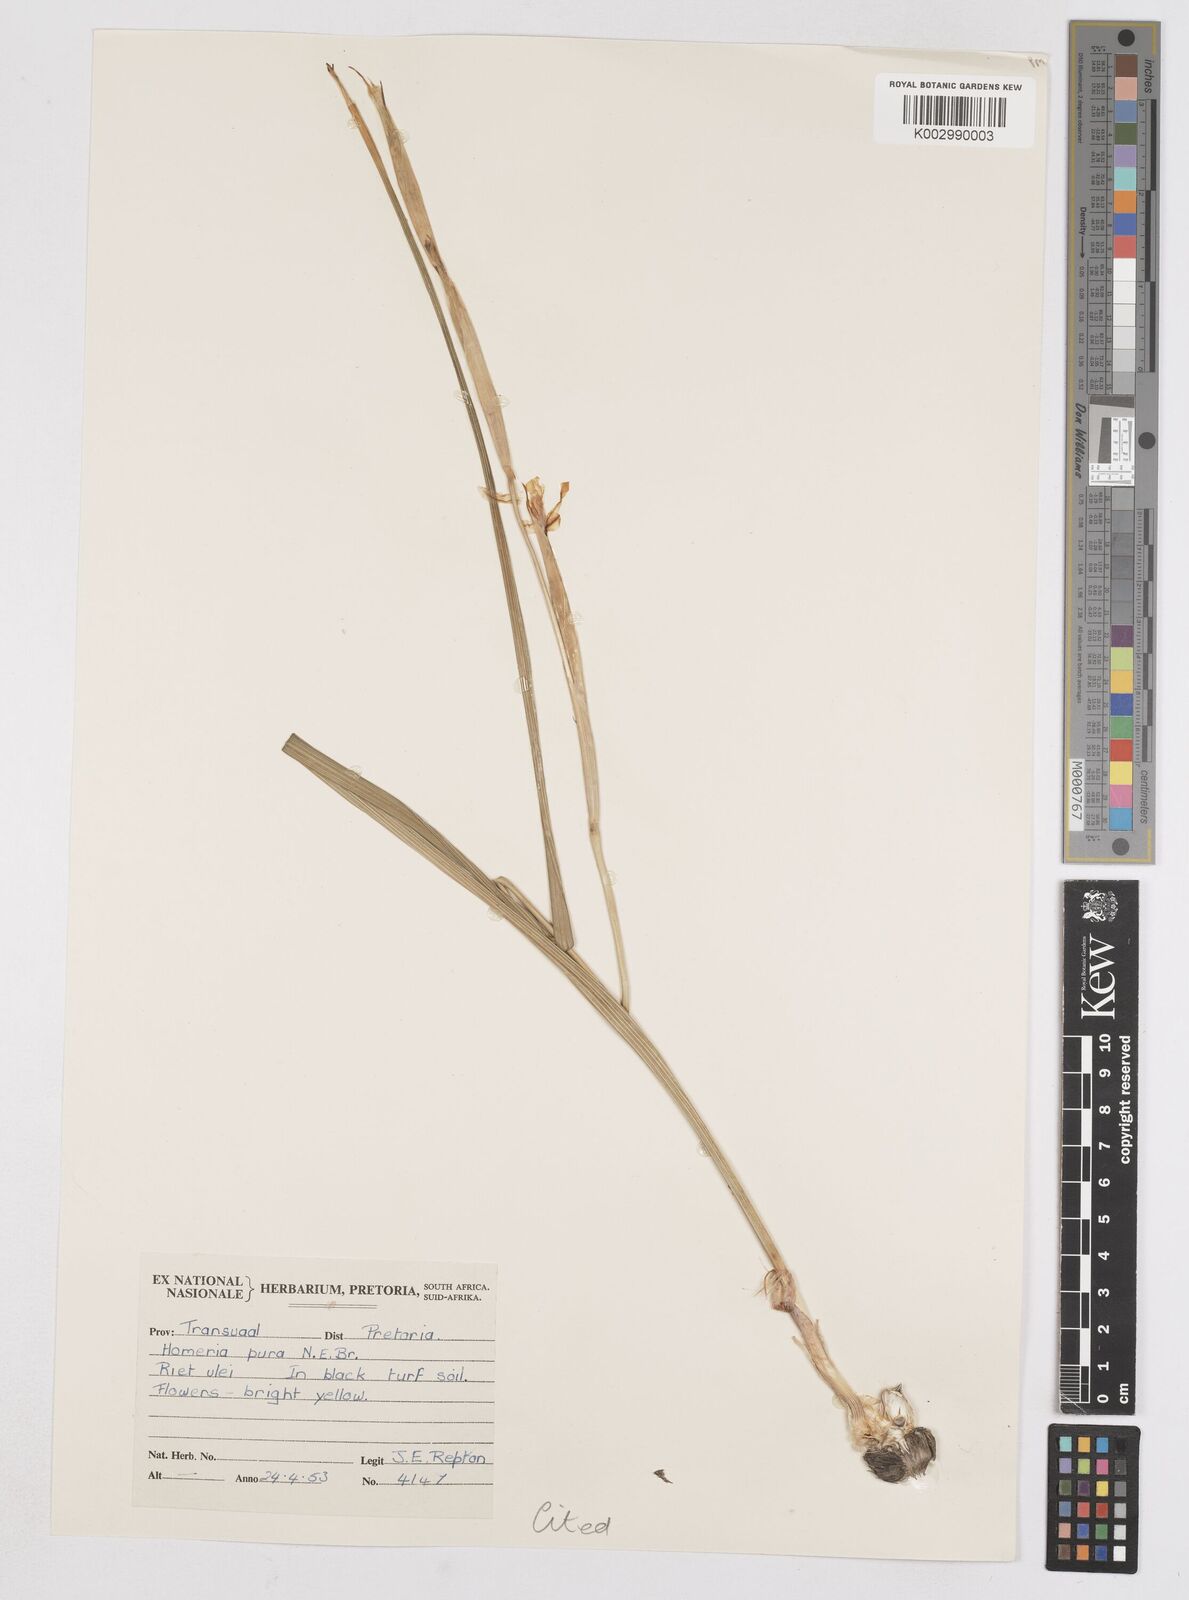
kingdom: Plantae
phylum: Tracheophyta
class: Liliopsida
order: Asparagales
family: Iridaceae
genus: Moraea
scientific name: Moraea pallida
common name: Yellow tulp
